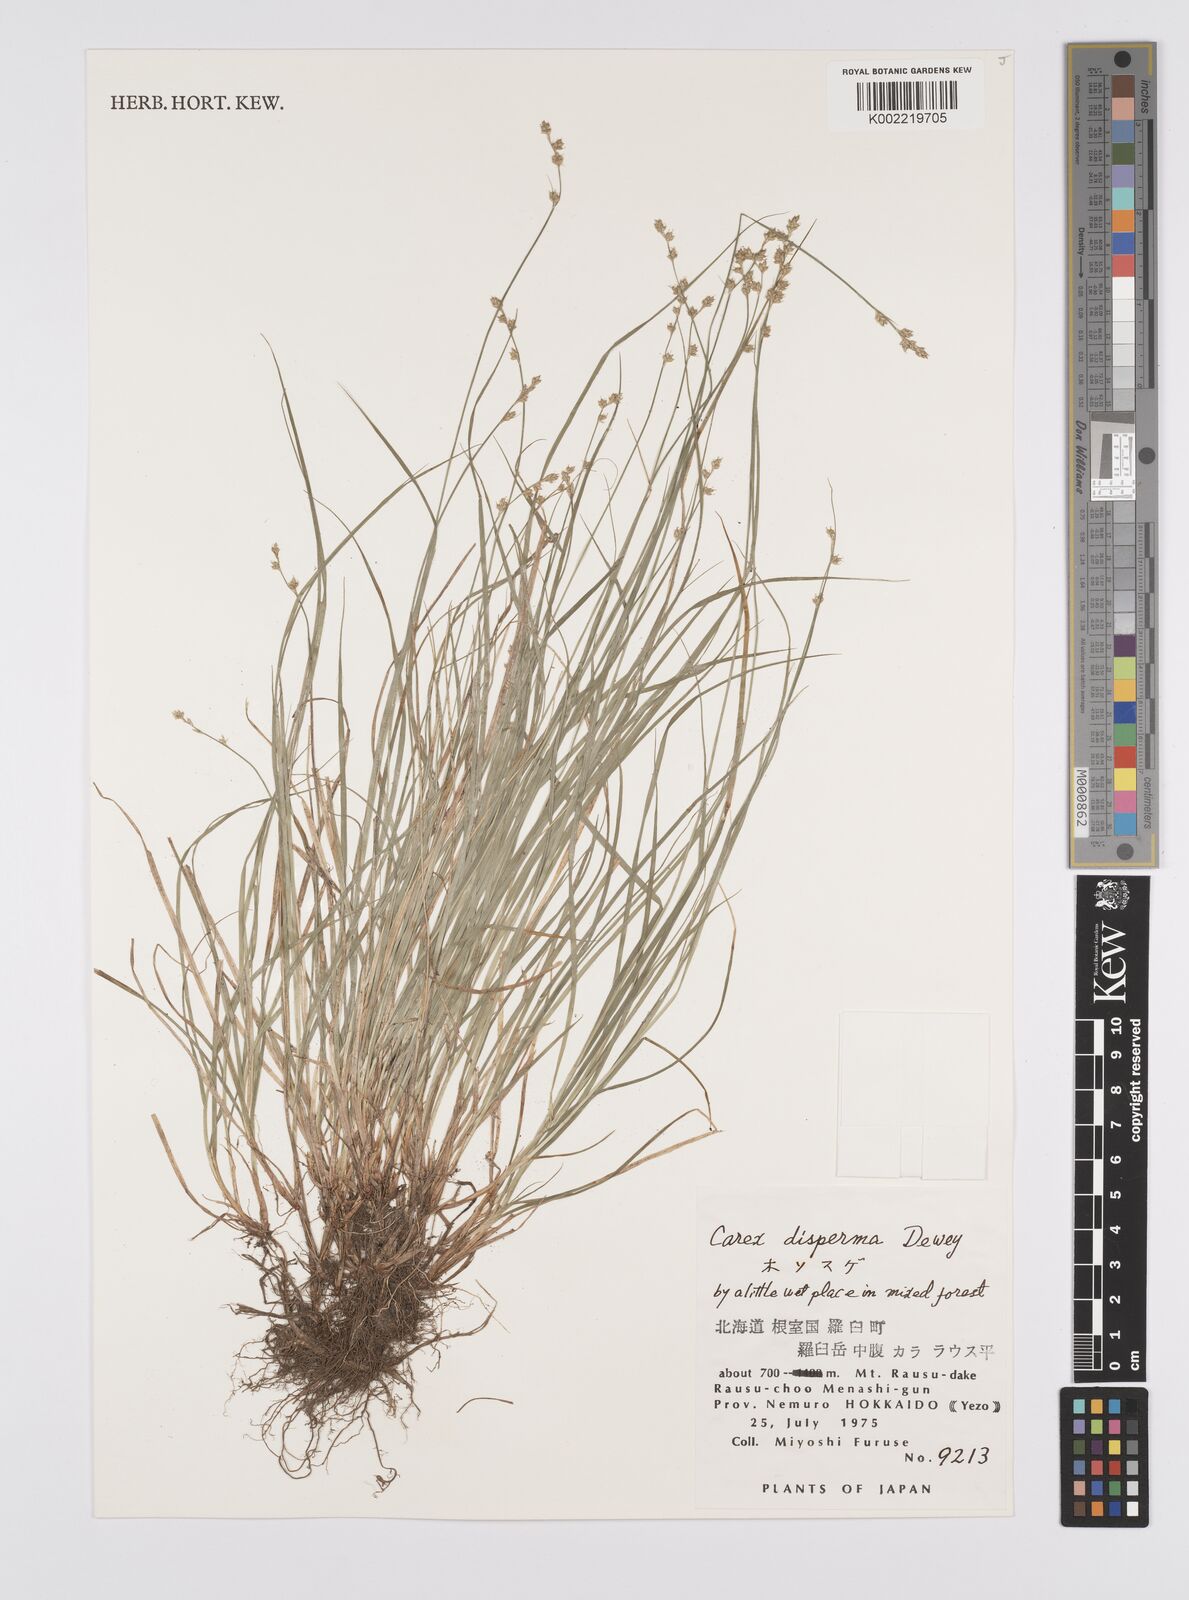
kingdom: Plantae
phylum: Tracheophyta
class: Liliopsida
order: Poales
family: Cyperaceae
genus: Carex
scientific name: Carex disperma
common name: Short-leaved sedge
